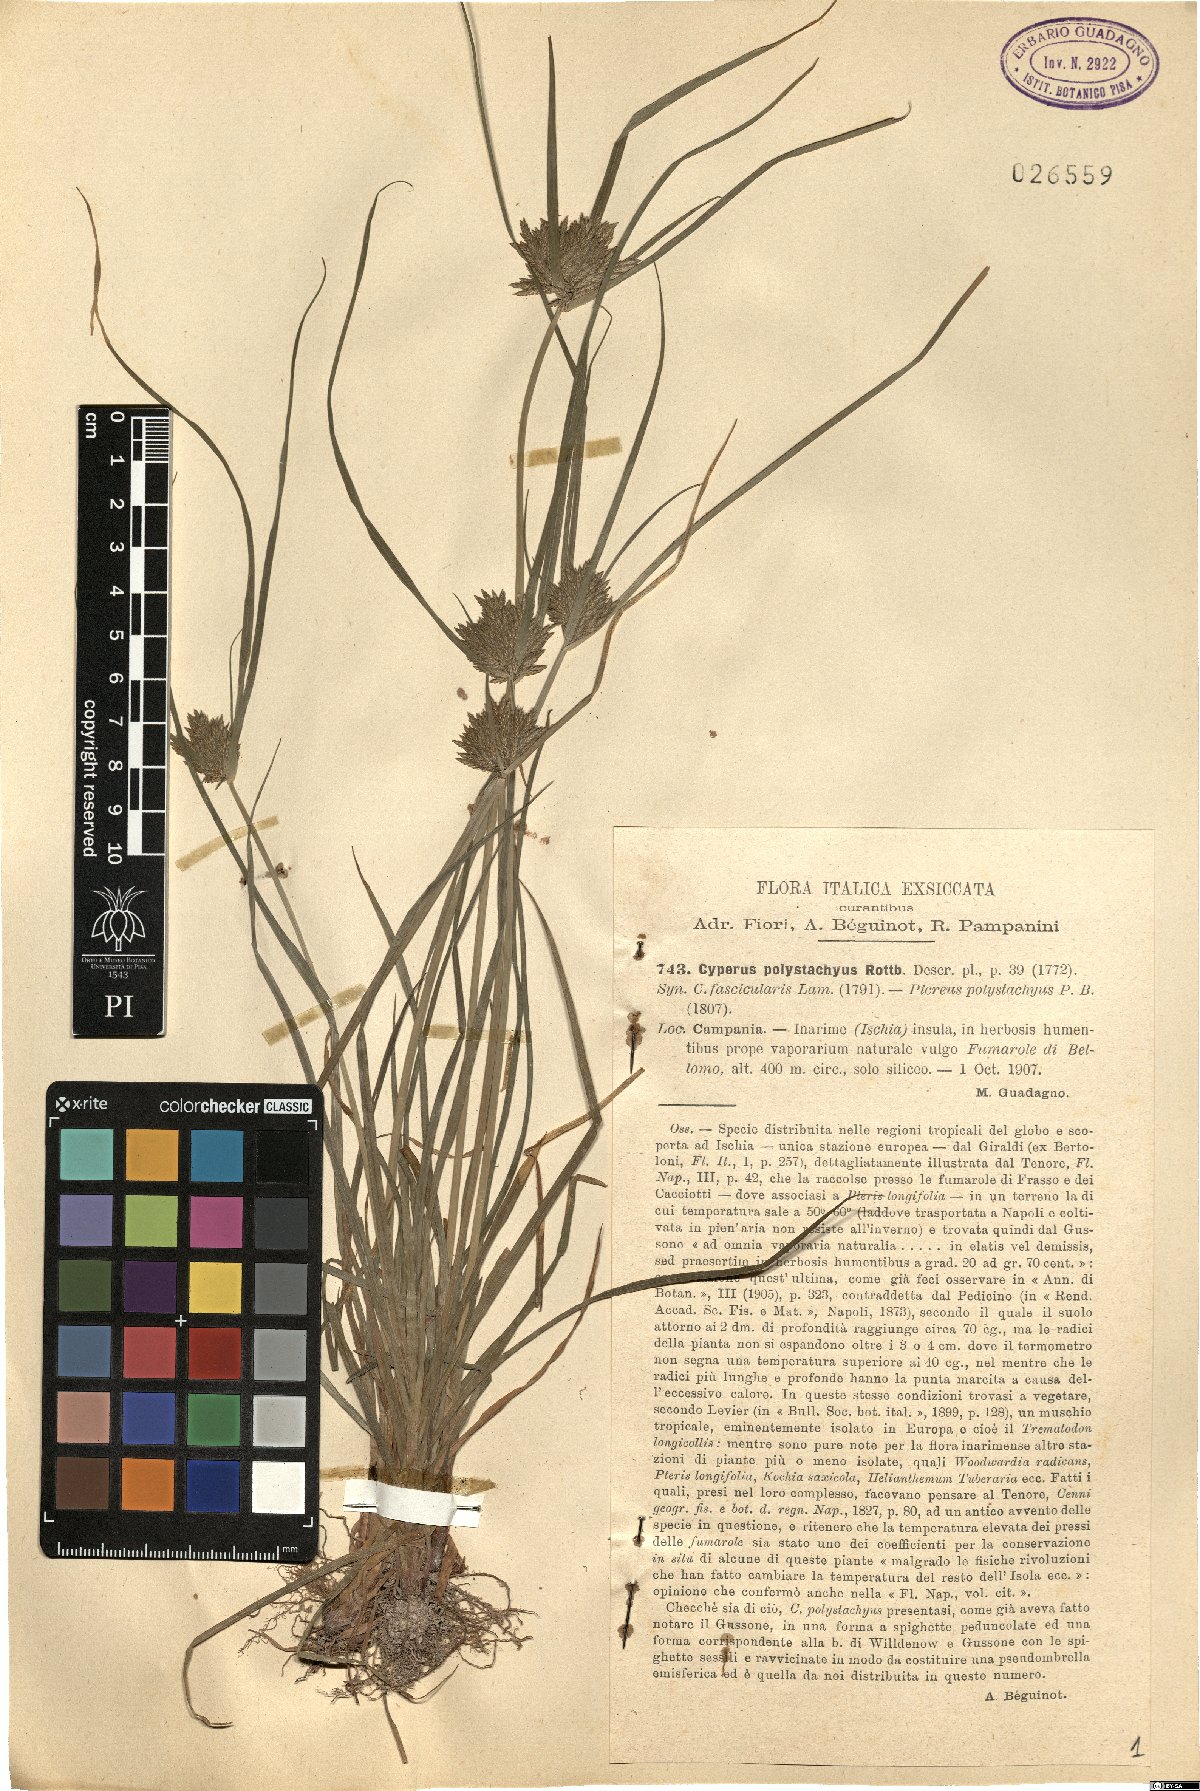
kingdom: Plantae
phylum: Tracheophyta
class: Liliopsida
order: Poales
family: Cyperaceae
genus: Cyperus
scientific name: Cyperus polystachyos
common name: Bunchy flat sedge
